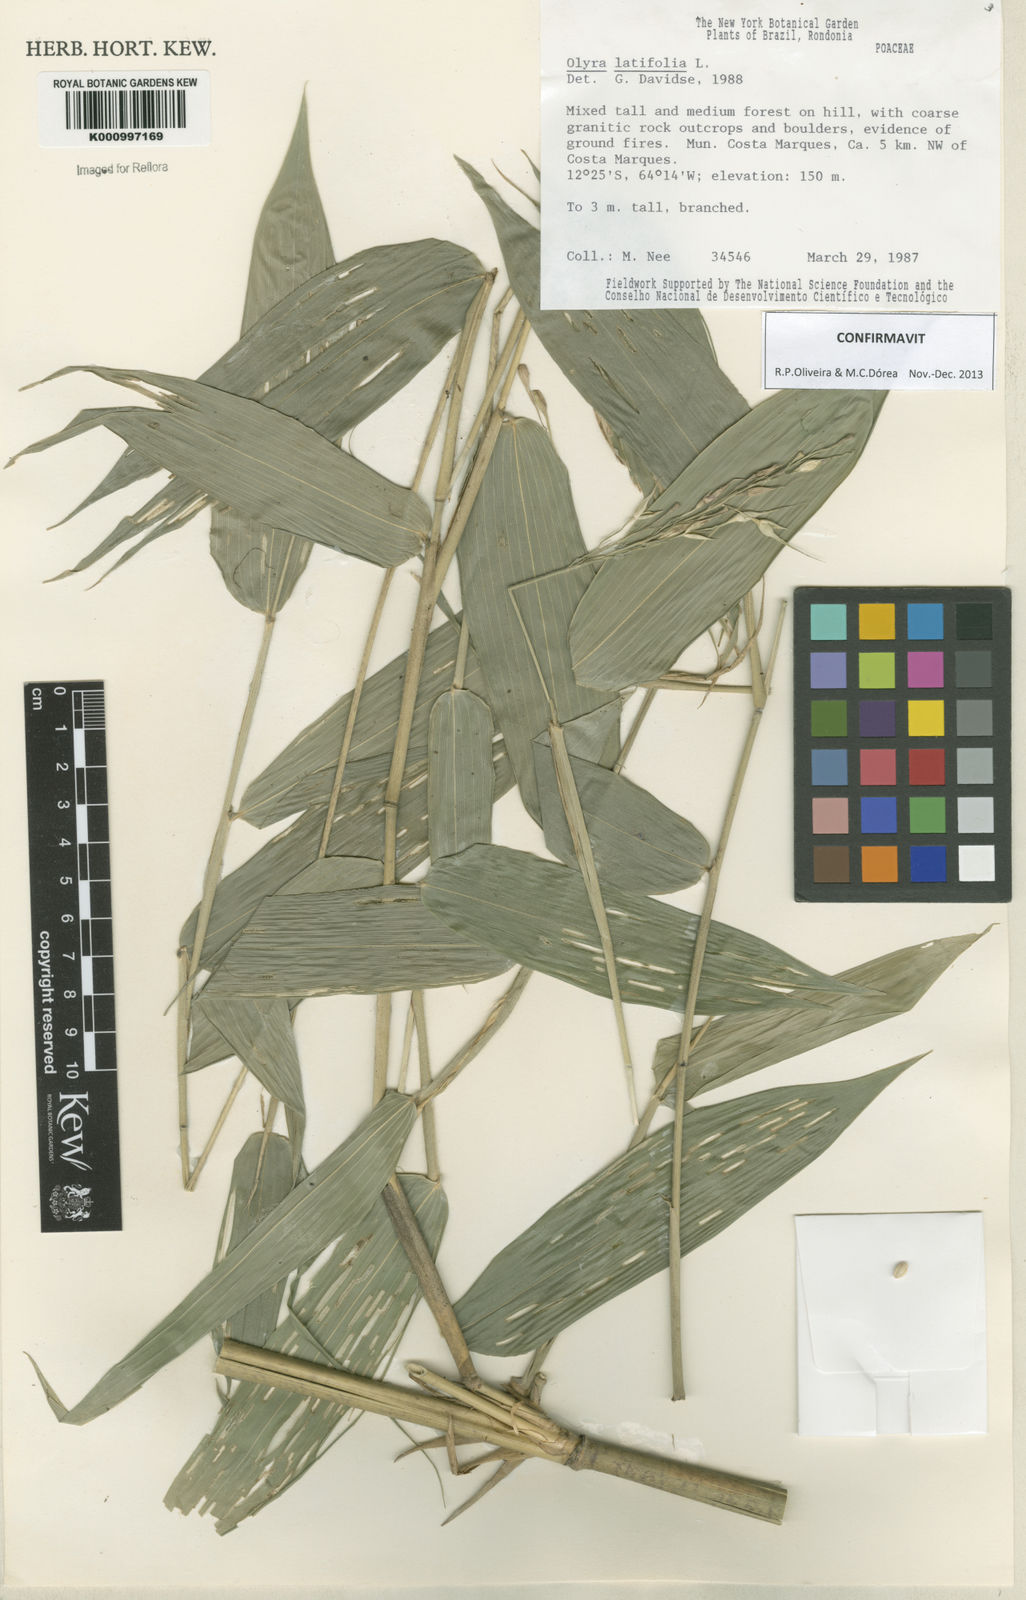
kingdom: Plantae
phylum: Tracheophyta
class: Liliopsida
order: Poales
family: Poaceae
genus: Olyra
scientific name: Olyra latifolia
